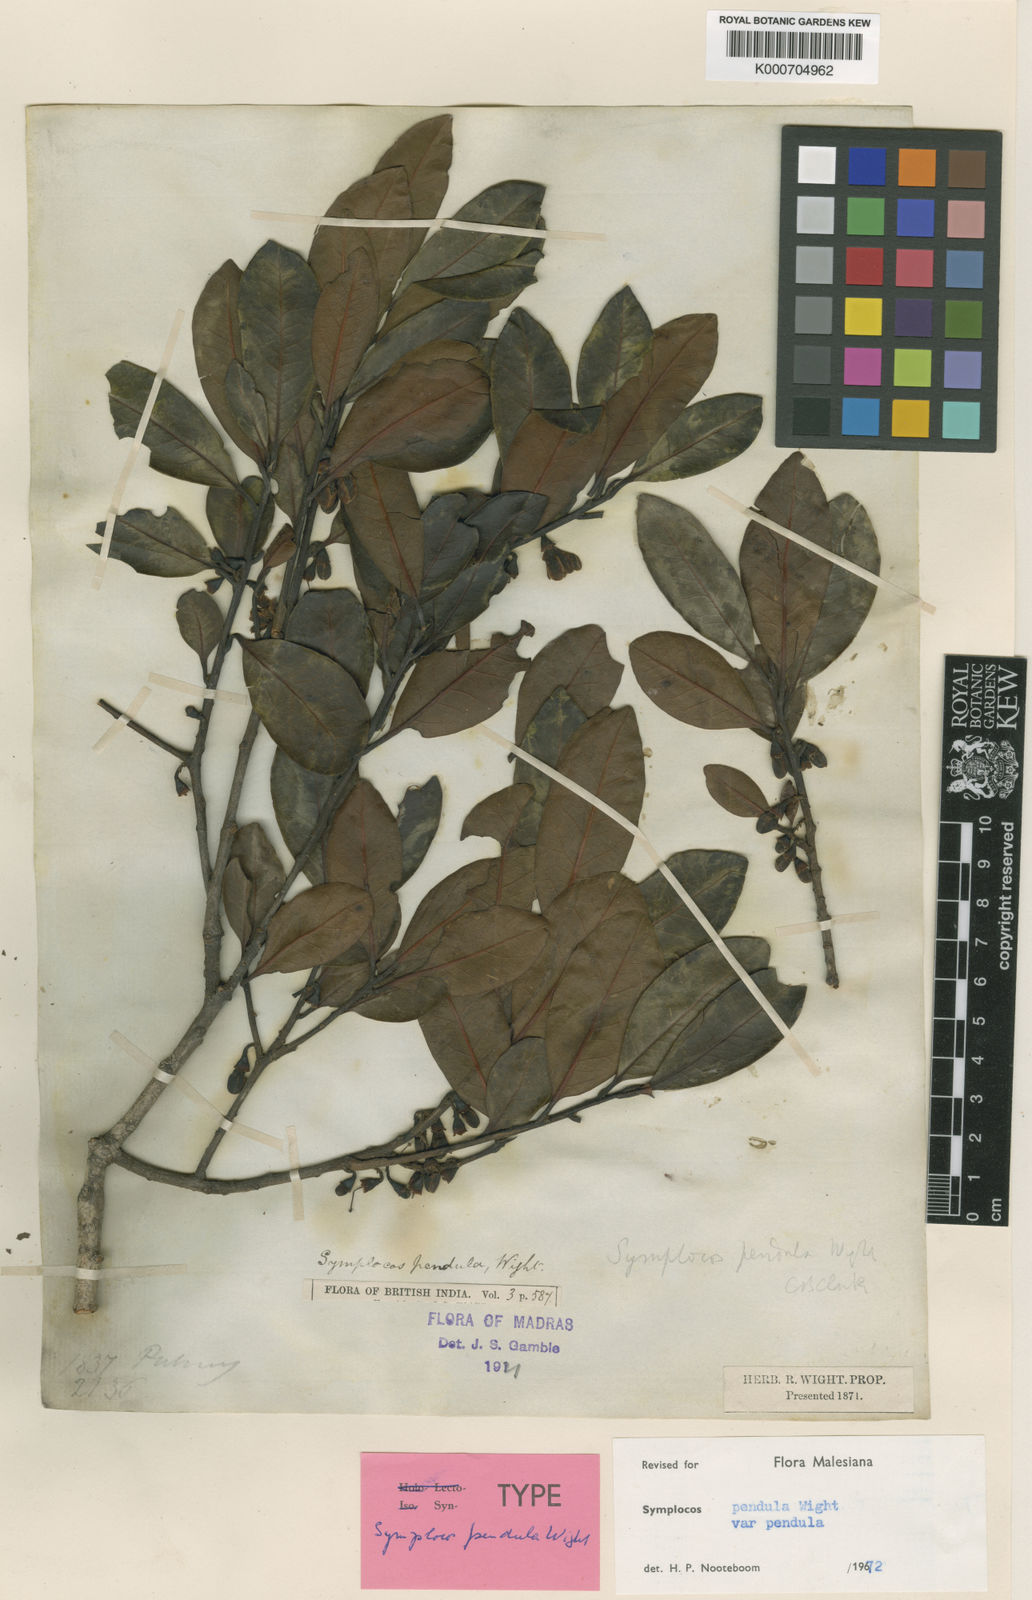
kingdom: Plantae
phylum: Tracheophyta
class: Magnoliopsida
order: Ericales
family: Symplocaceae
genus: Symplocos
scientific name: Symplocos pendula
